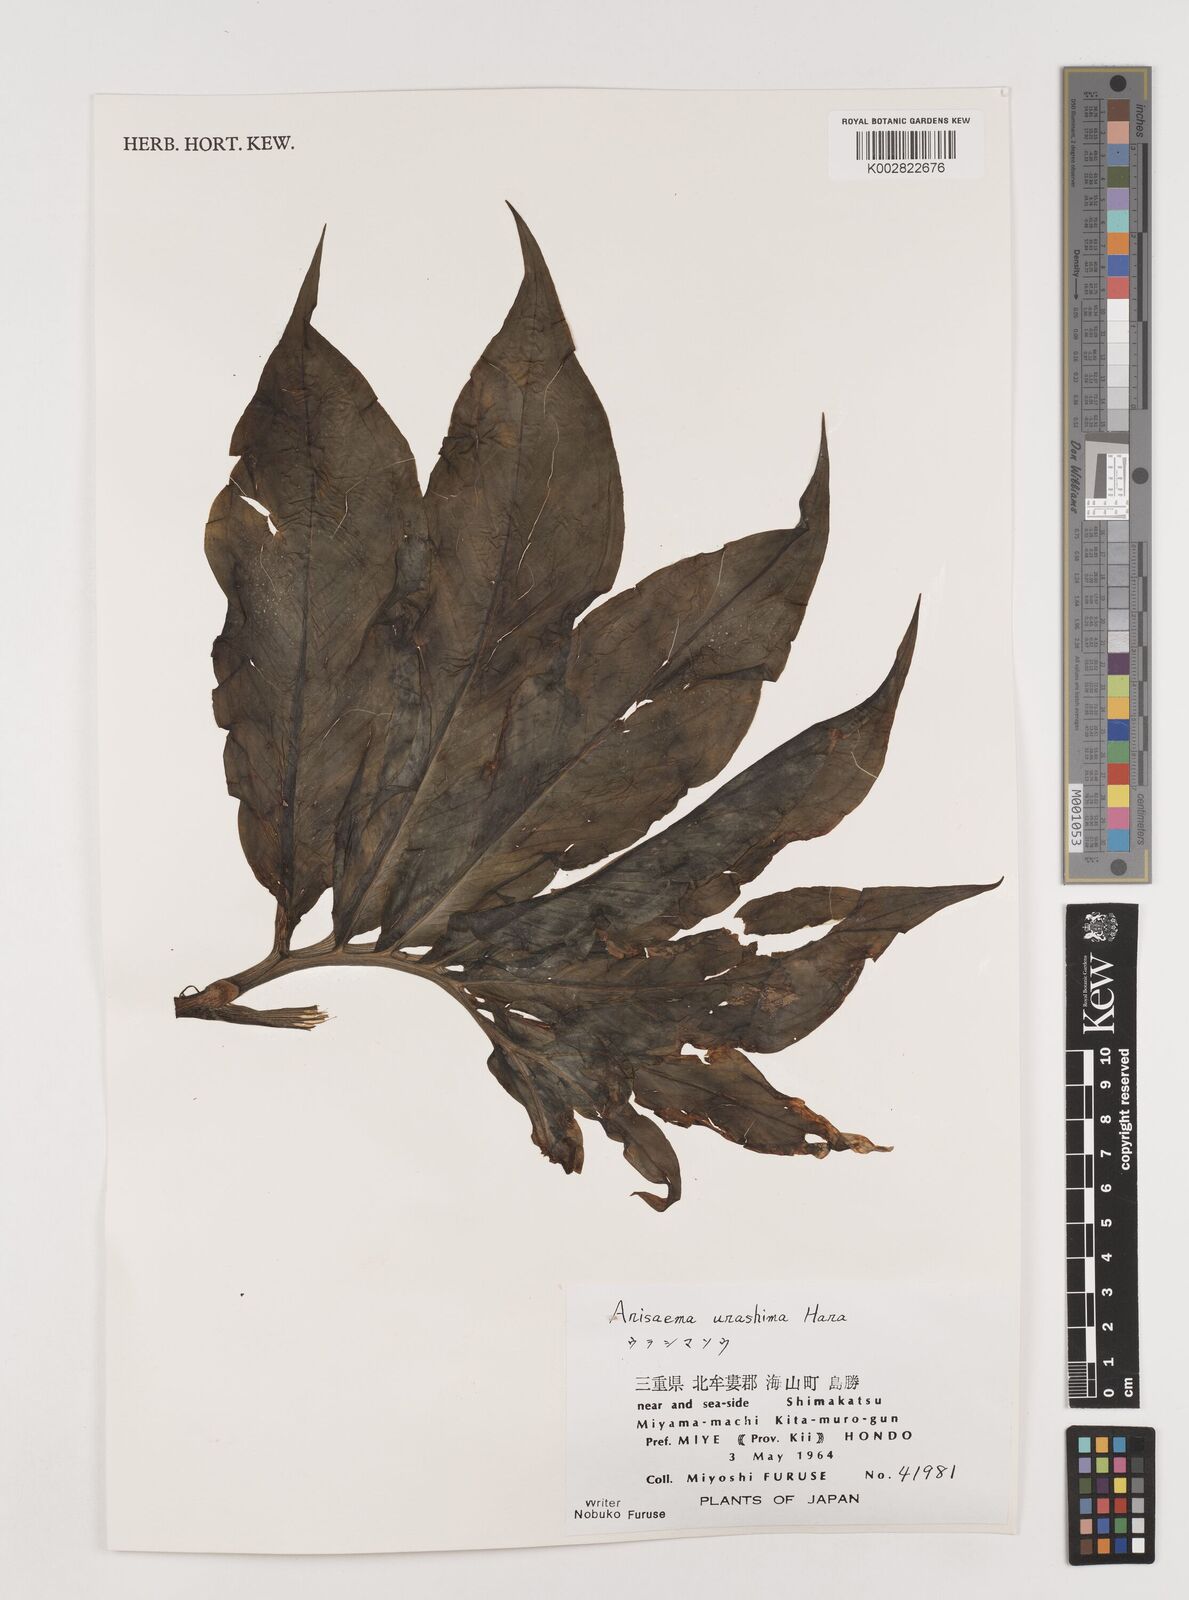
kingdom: Plantae
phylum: Tracheophyta
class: Liliopsida
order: Alismatales
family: Araceae
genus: Arisaema
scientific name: Arisaema
